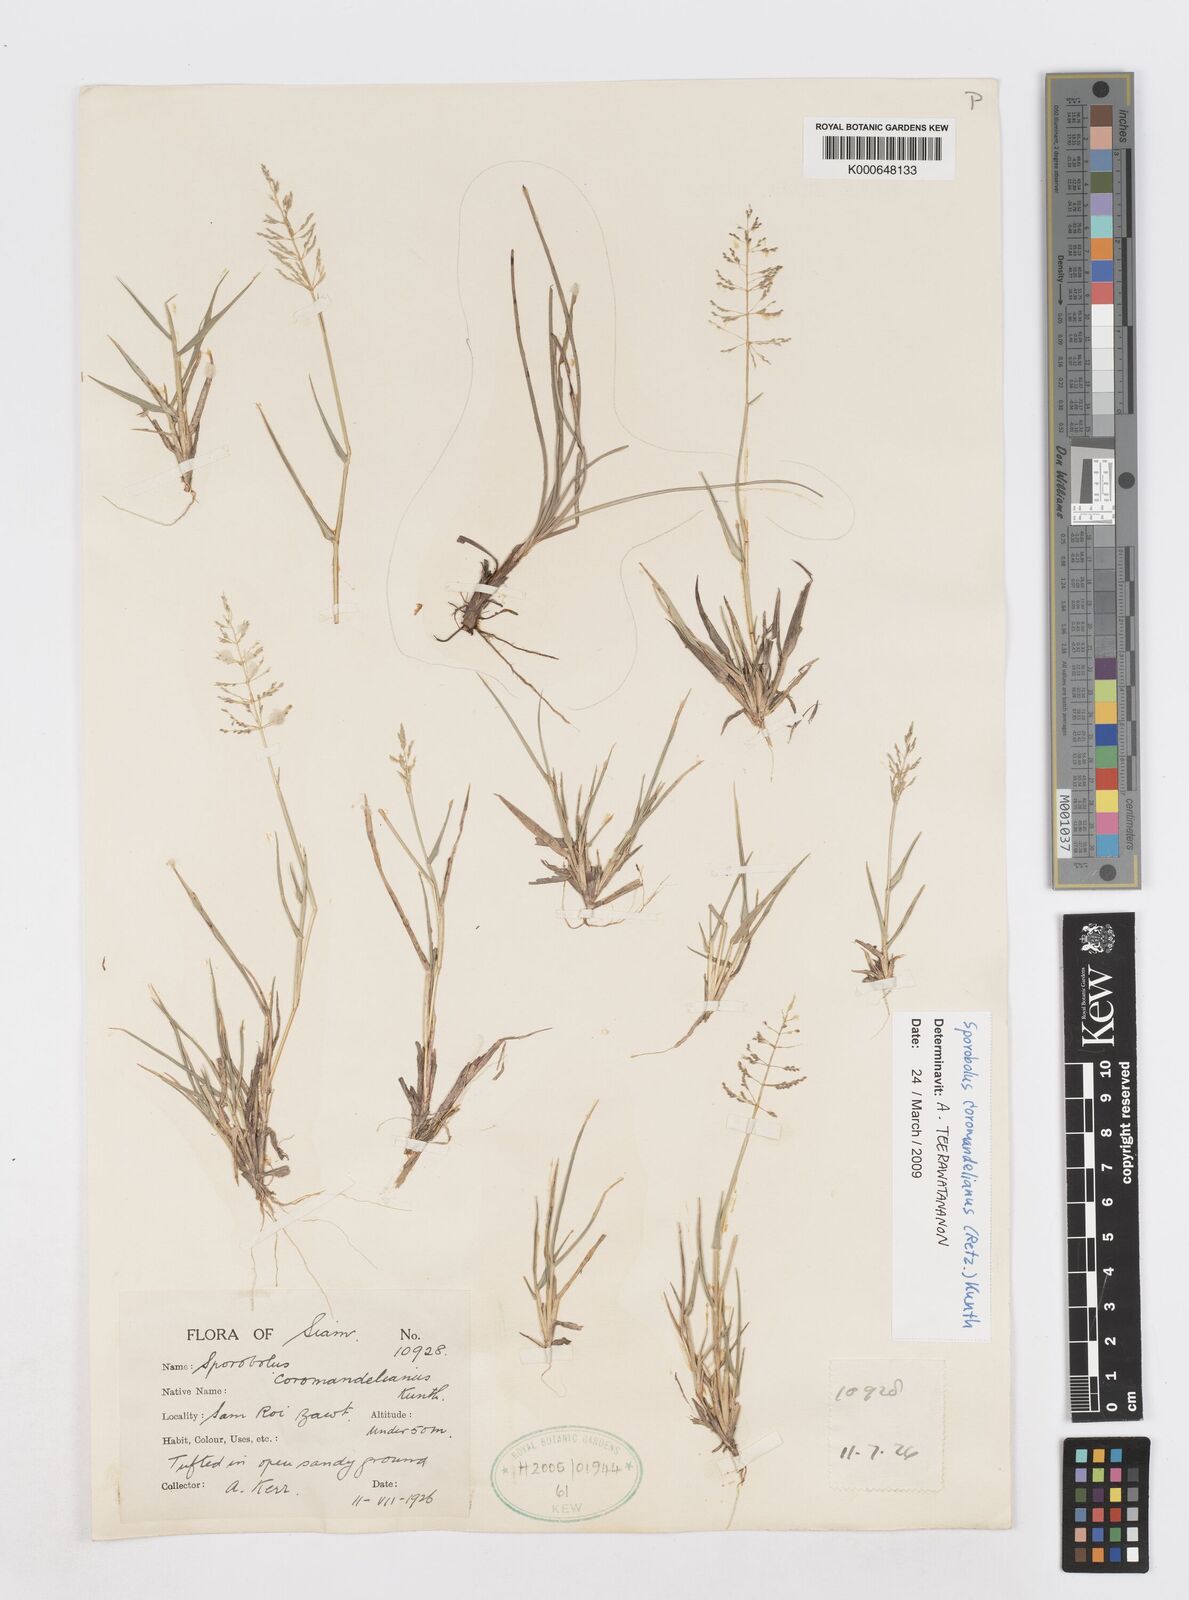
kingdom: Plantae
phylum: Tracheophyta
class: Liliopsida
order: Poales
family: Poaceae
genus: Sporobolus
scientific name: Sporobolus coromandelianus
